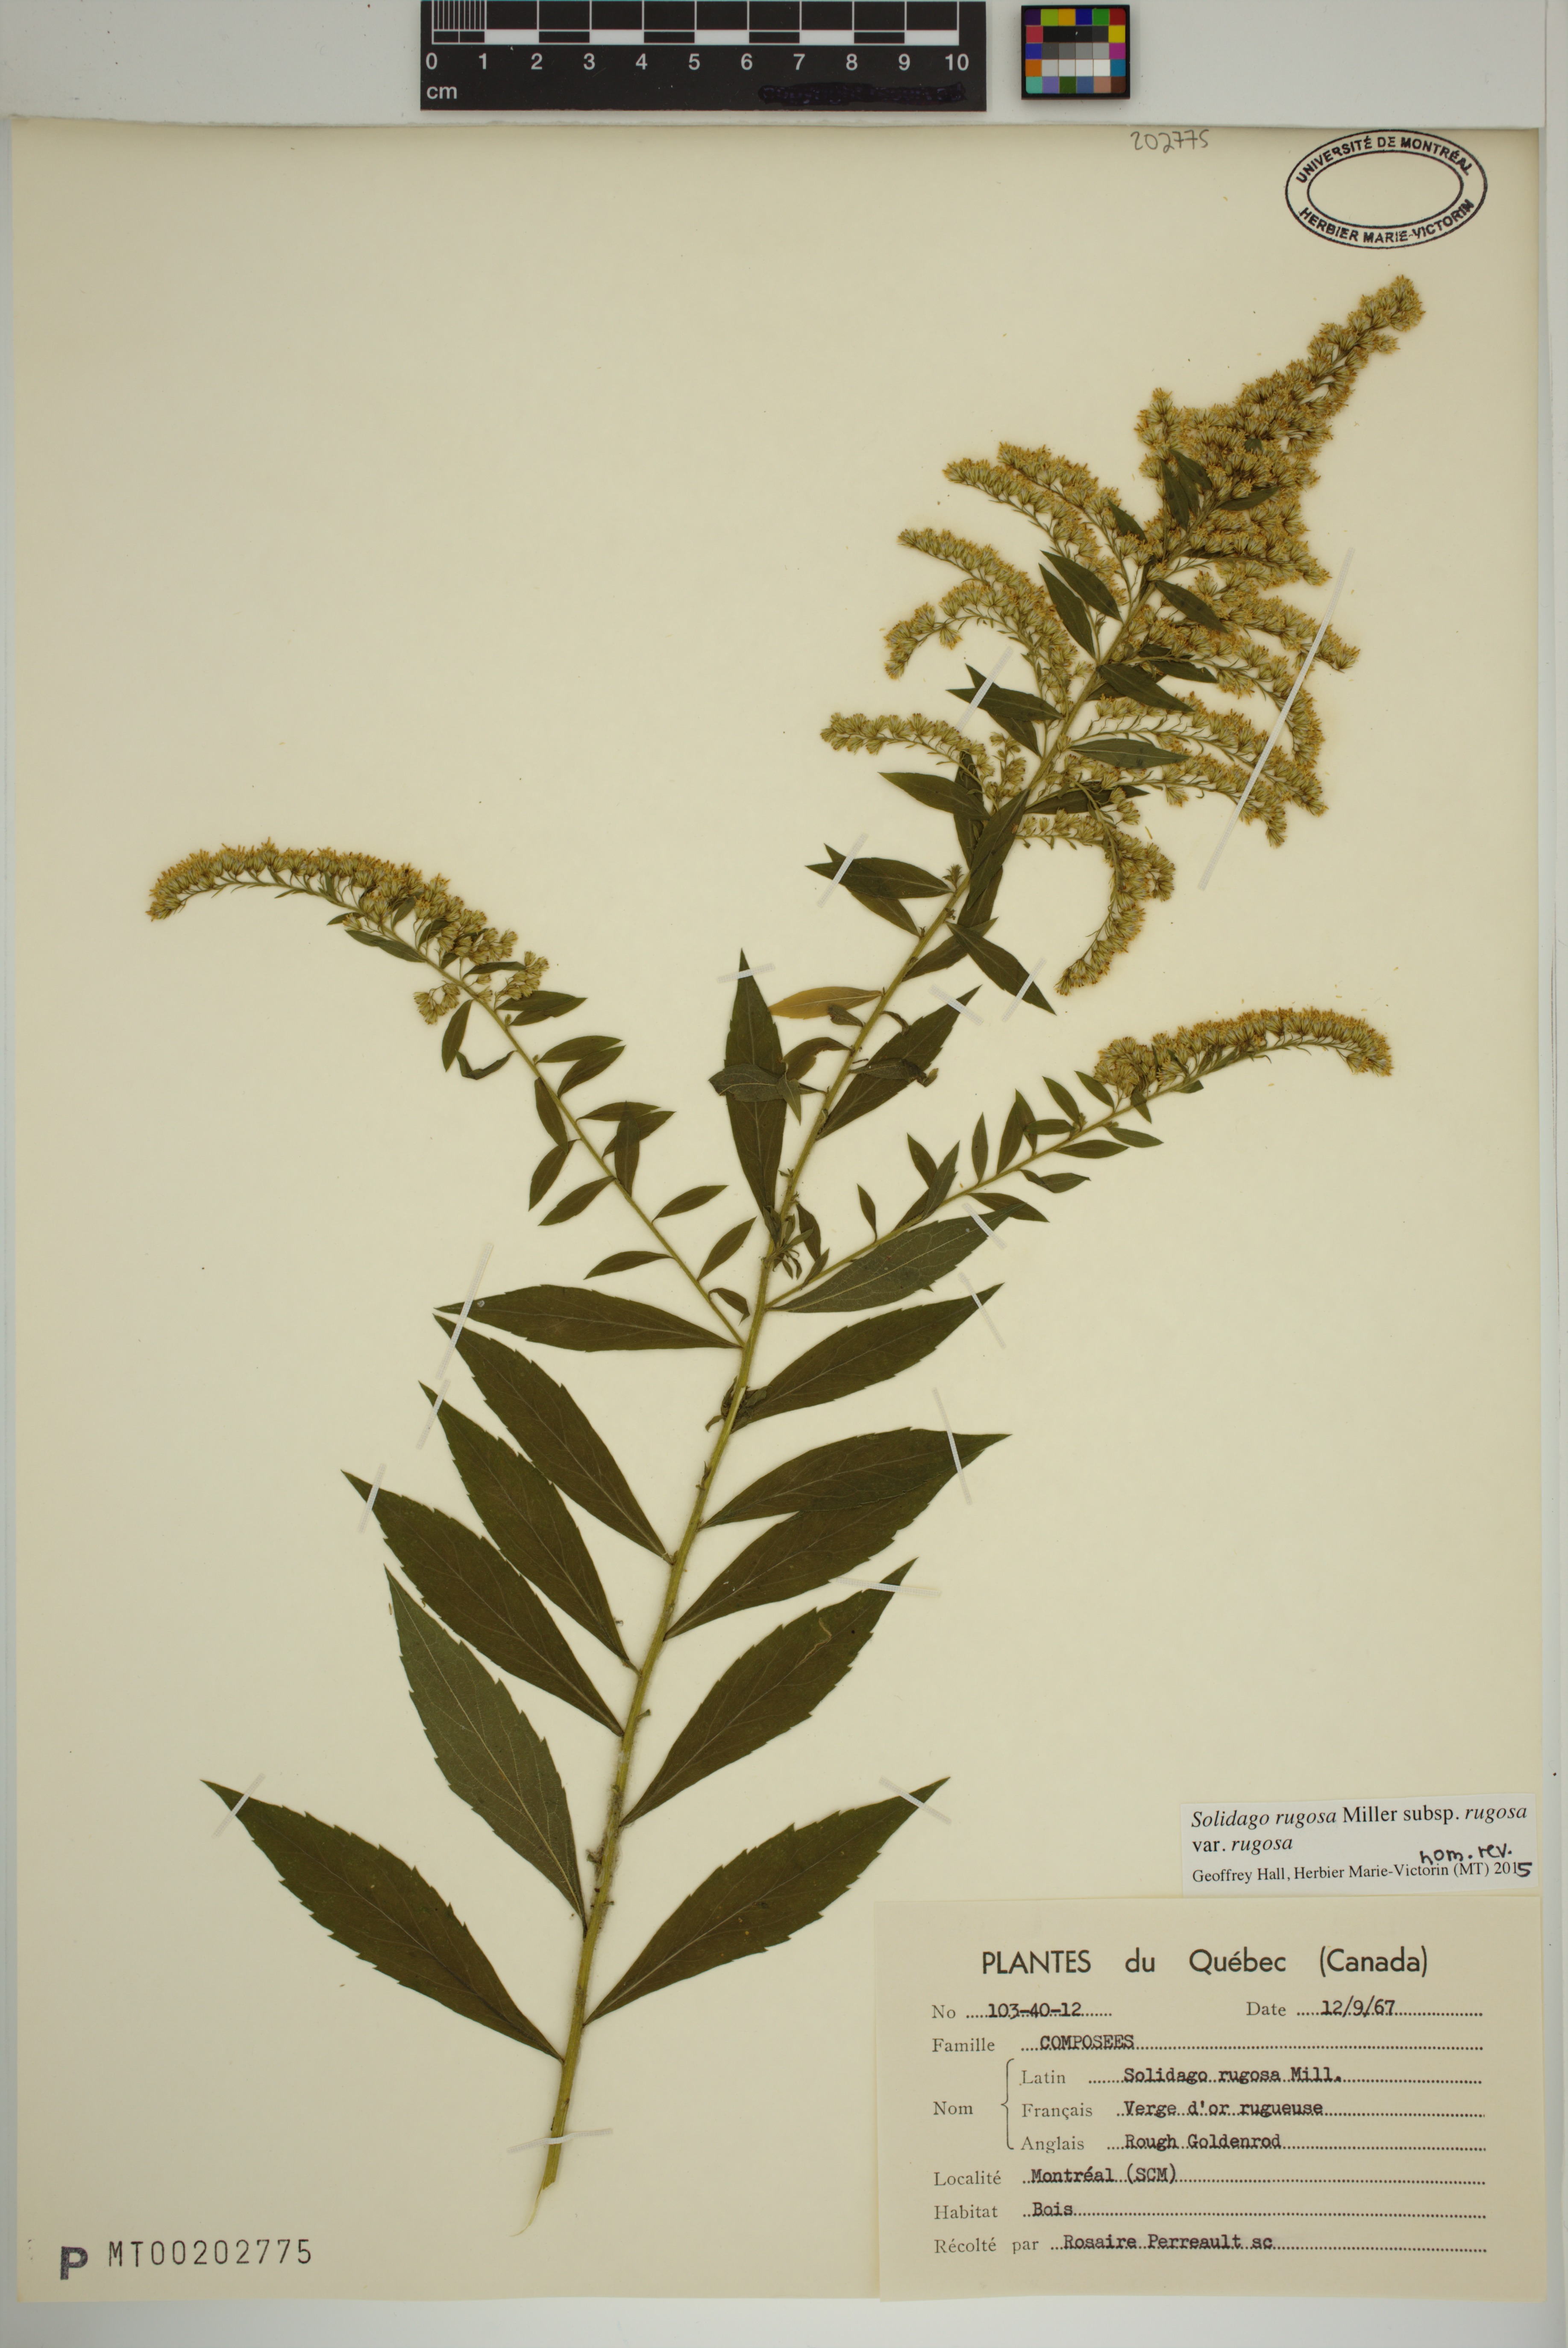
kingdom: Plantae
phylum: Tracheophyta
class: Magnoliopsida
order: Asterales
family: Asteraceae
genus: Solidago
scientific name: Solidago rugosa
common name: Rough-stemmed goldenrod
